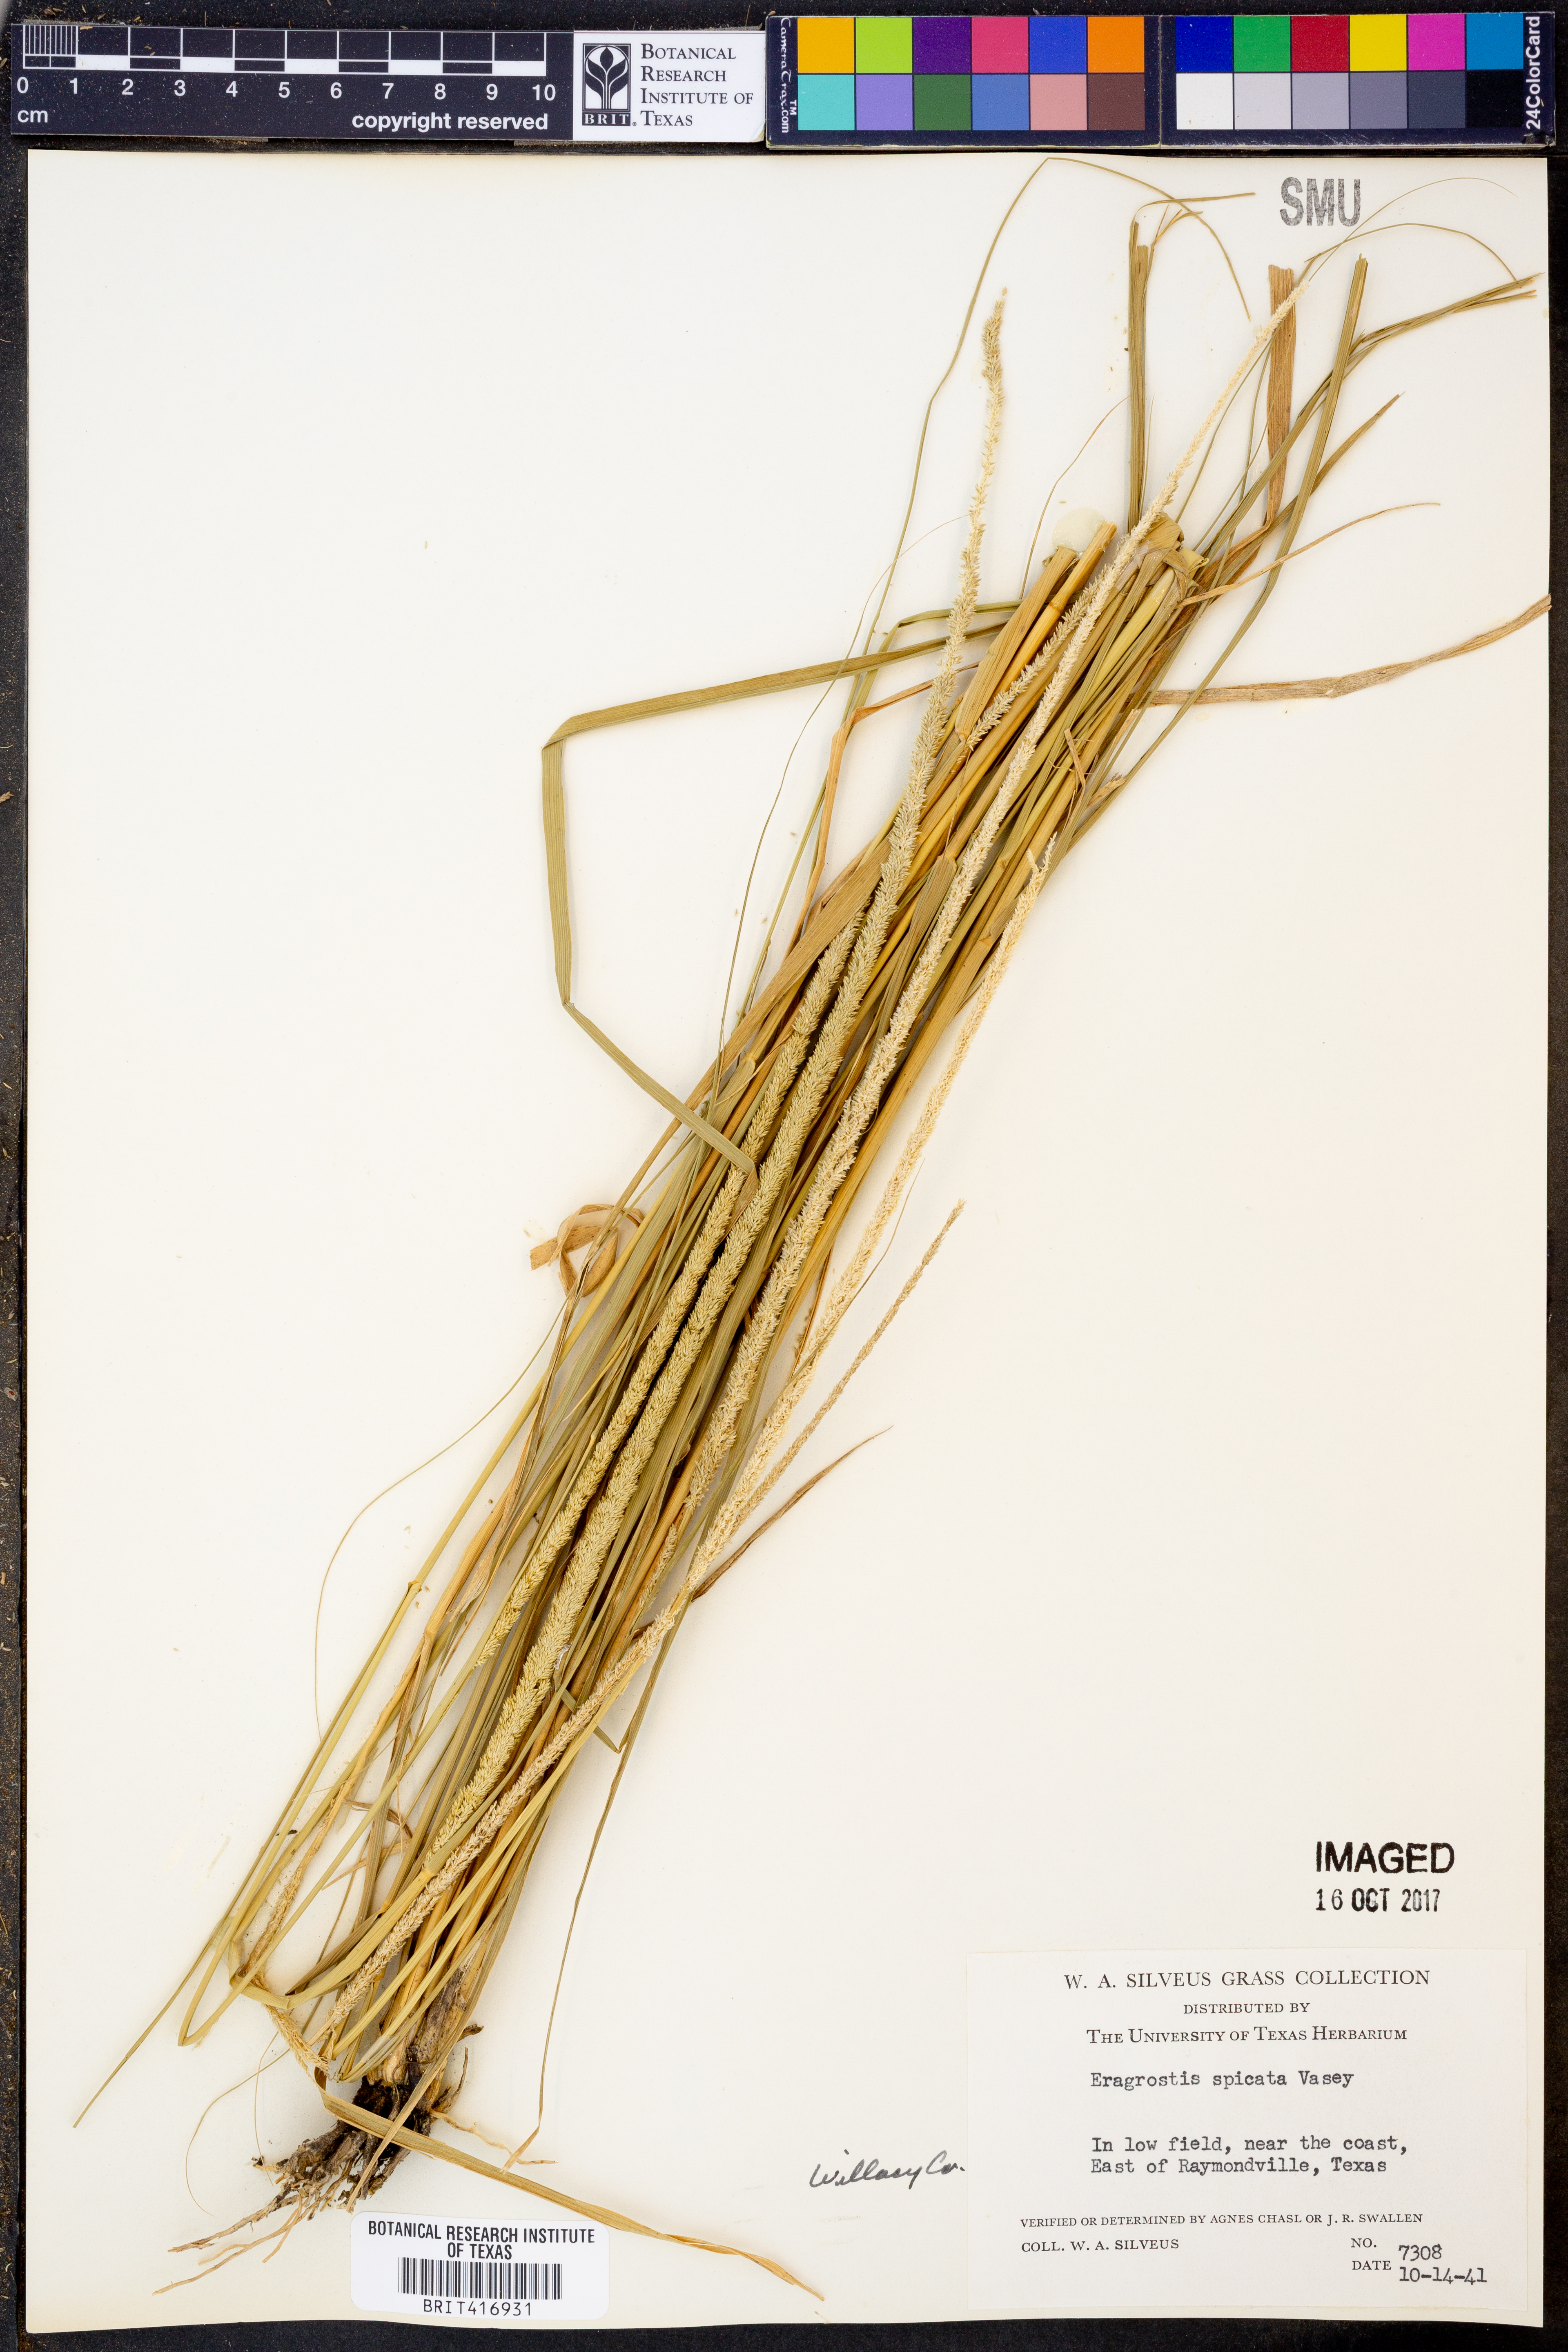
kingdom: Plantae
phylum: Tracheophyta
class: Liliopsida
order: Poales
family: Poaceae
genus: Eragrostis
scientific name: Eragrostis spicata
